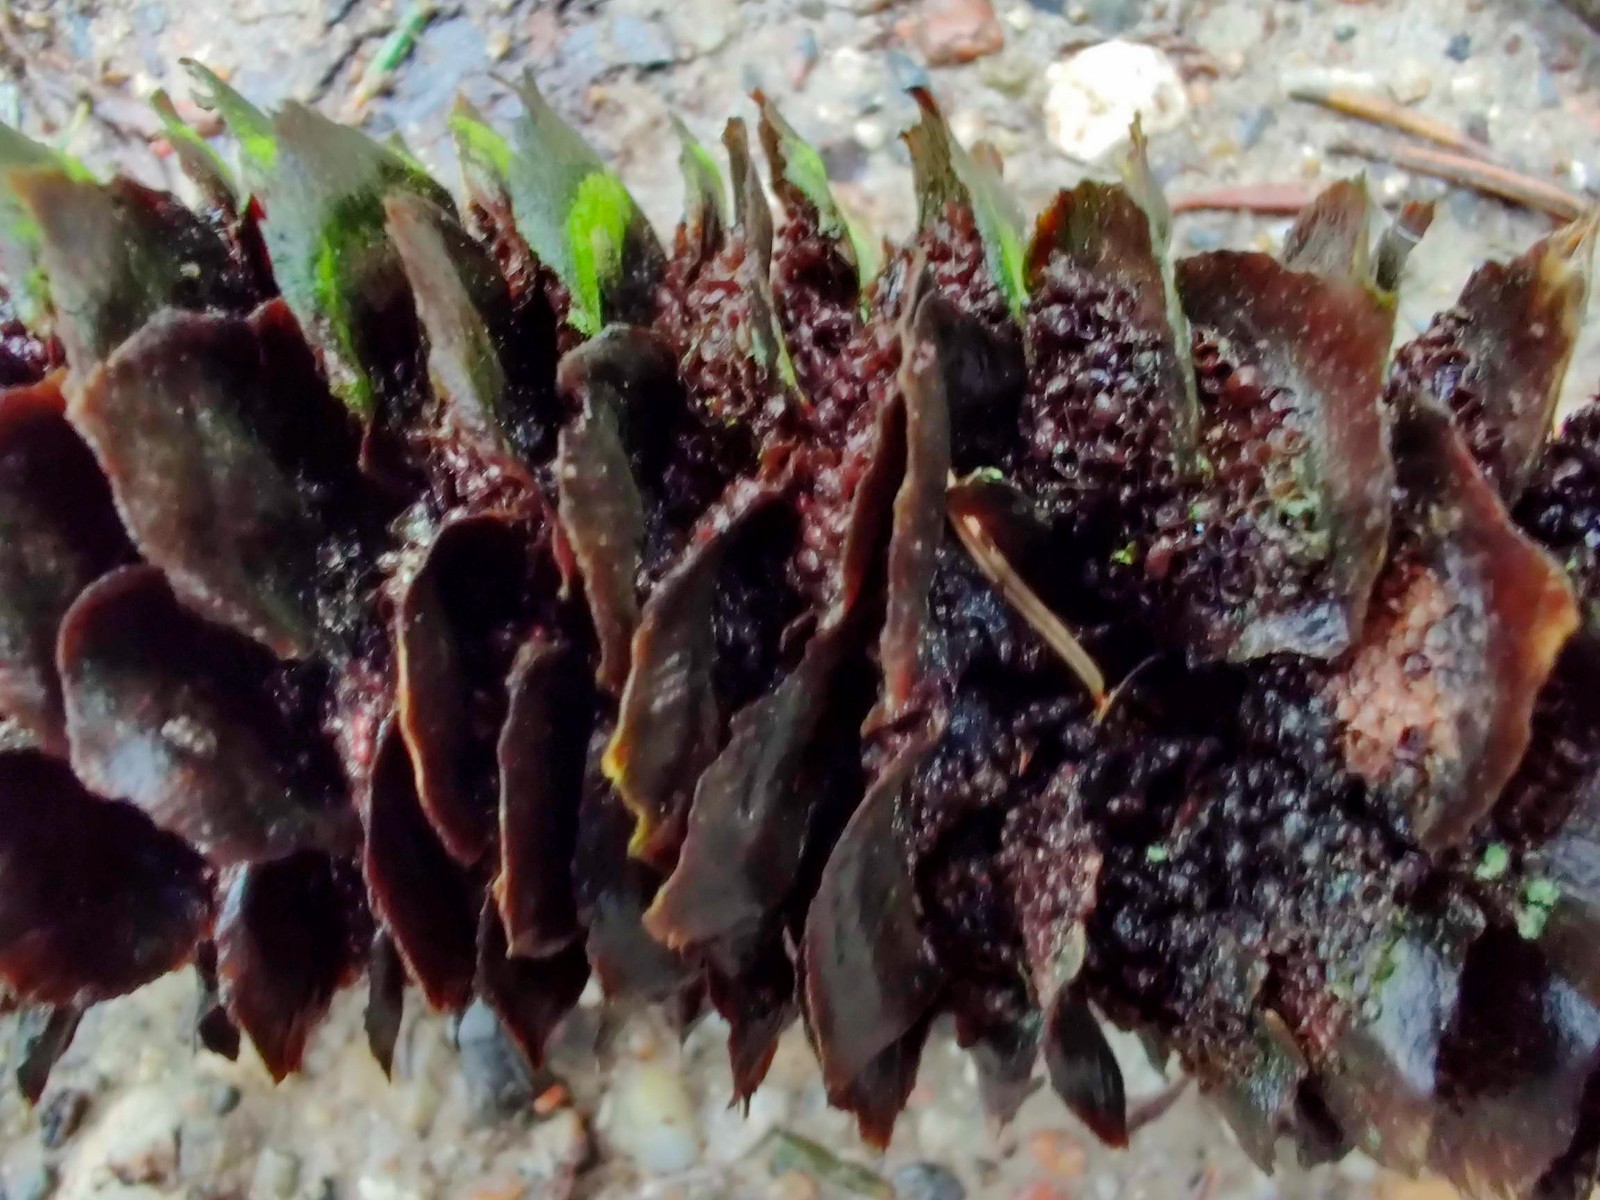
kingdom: Fungi
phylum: Basidiomycota
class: Pucciniomycetes
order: Pucciniales
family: Pucciniastraceae
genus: Thekopsora
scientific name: Thekopsora areolata
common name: grankogle-nålerust
